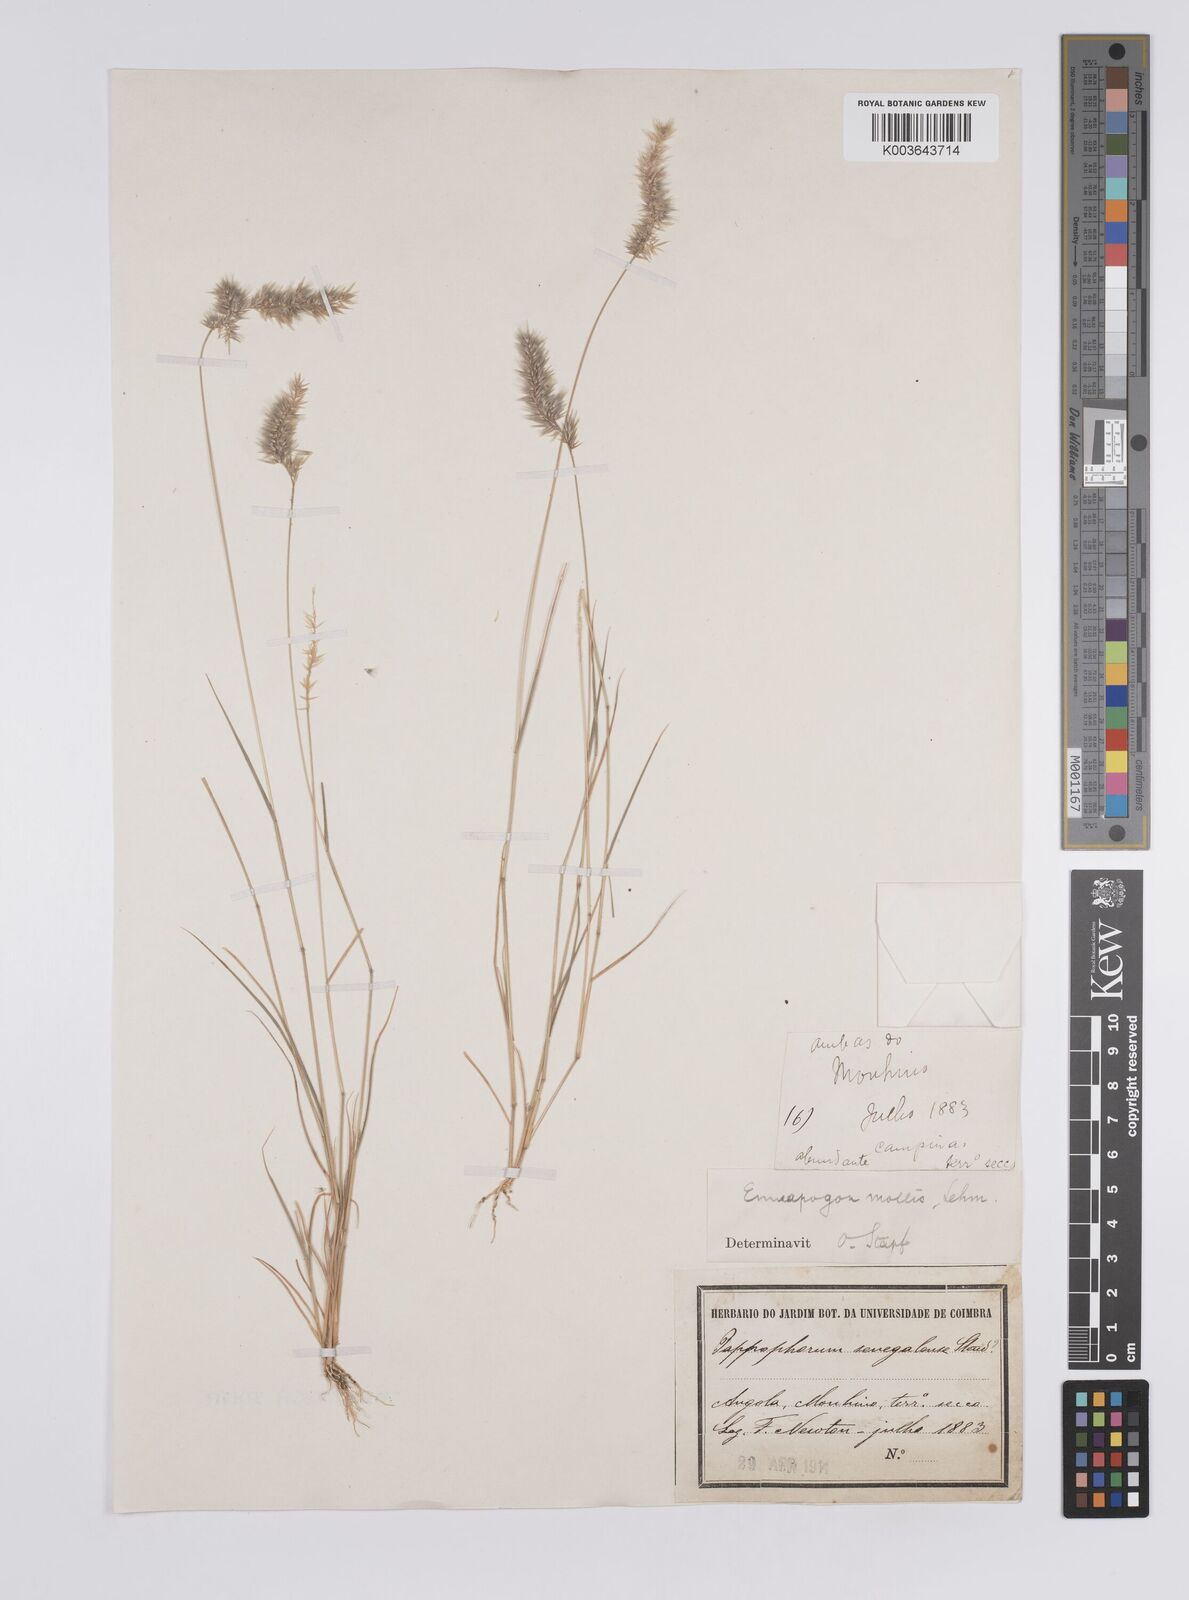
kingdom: Plantae
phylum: Tracheophyta
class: Liliopsida
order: Poales
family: Poaceae
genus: Enneapogon
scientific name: Enneapogon cenchroides
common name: Soft feather pappusgrass
